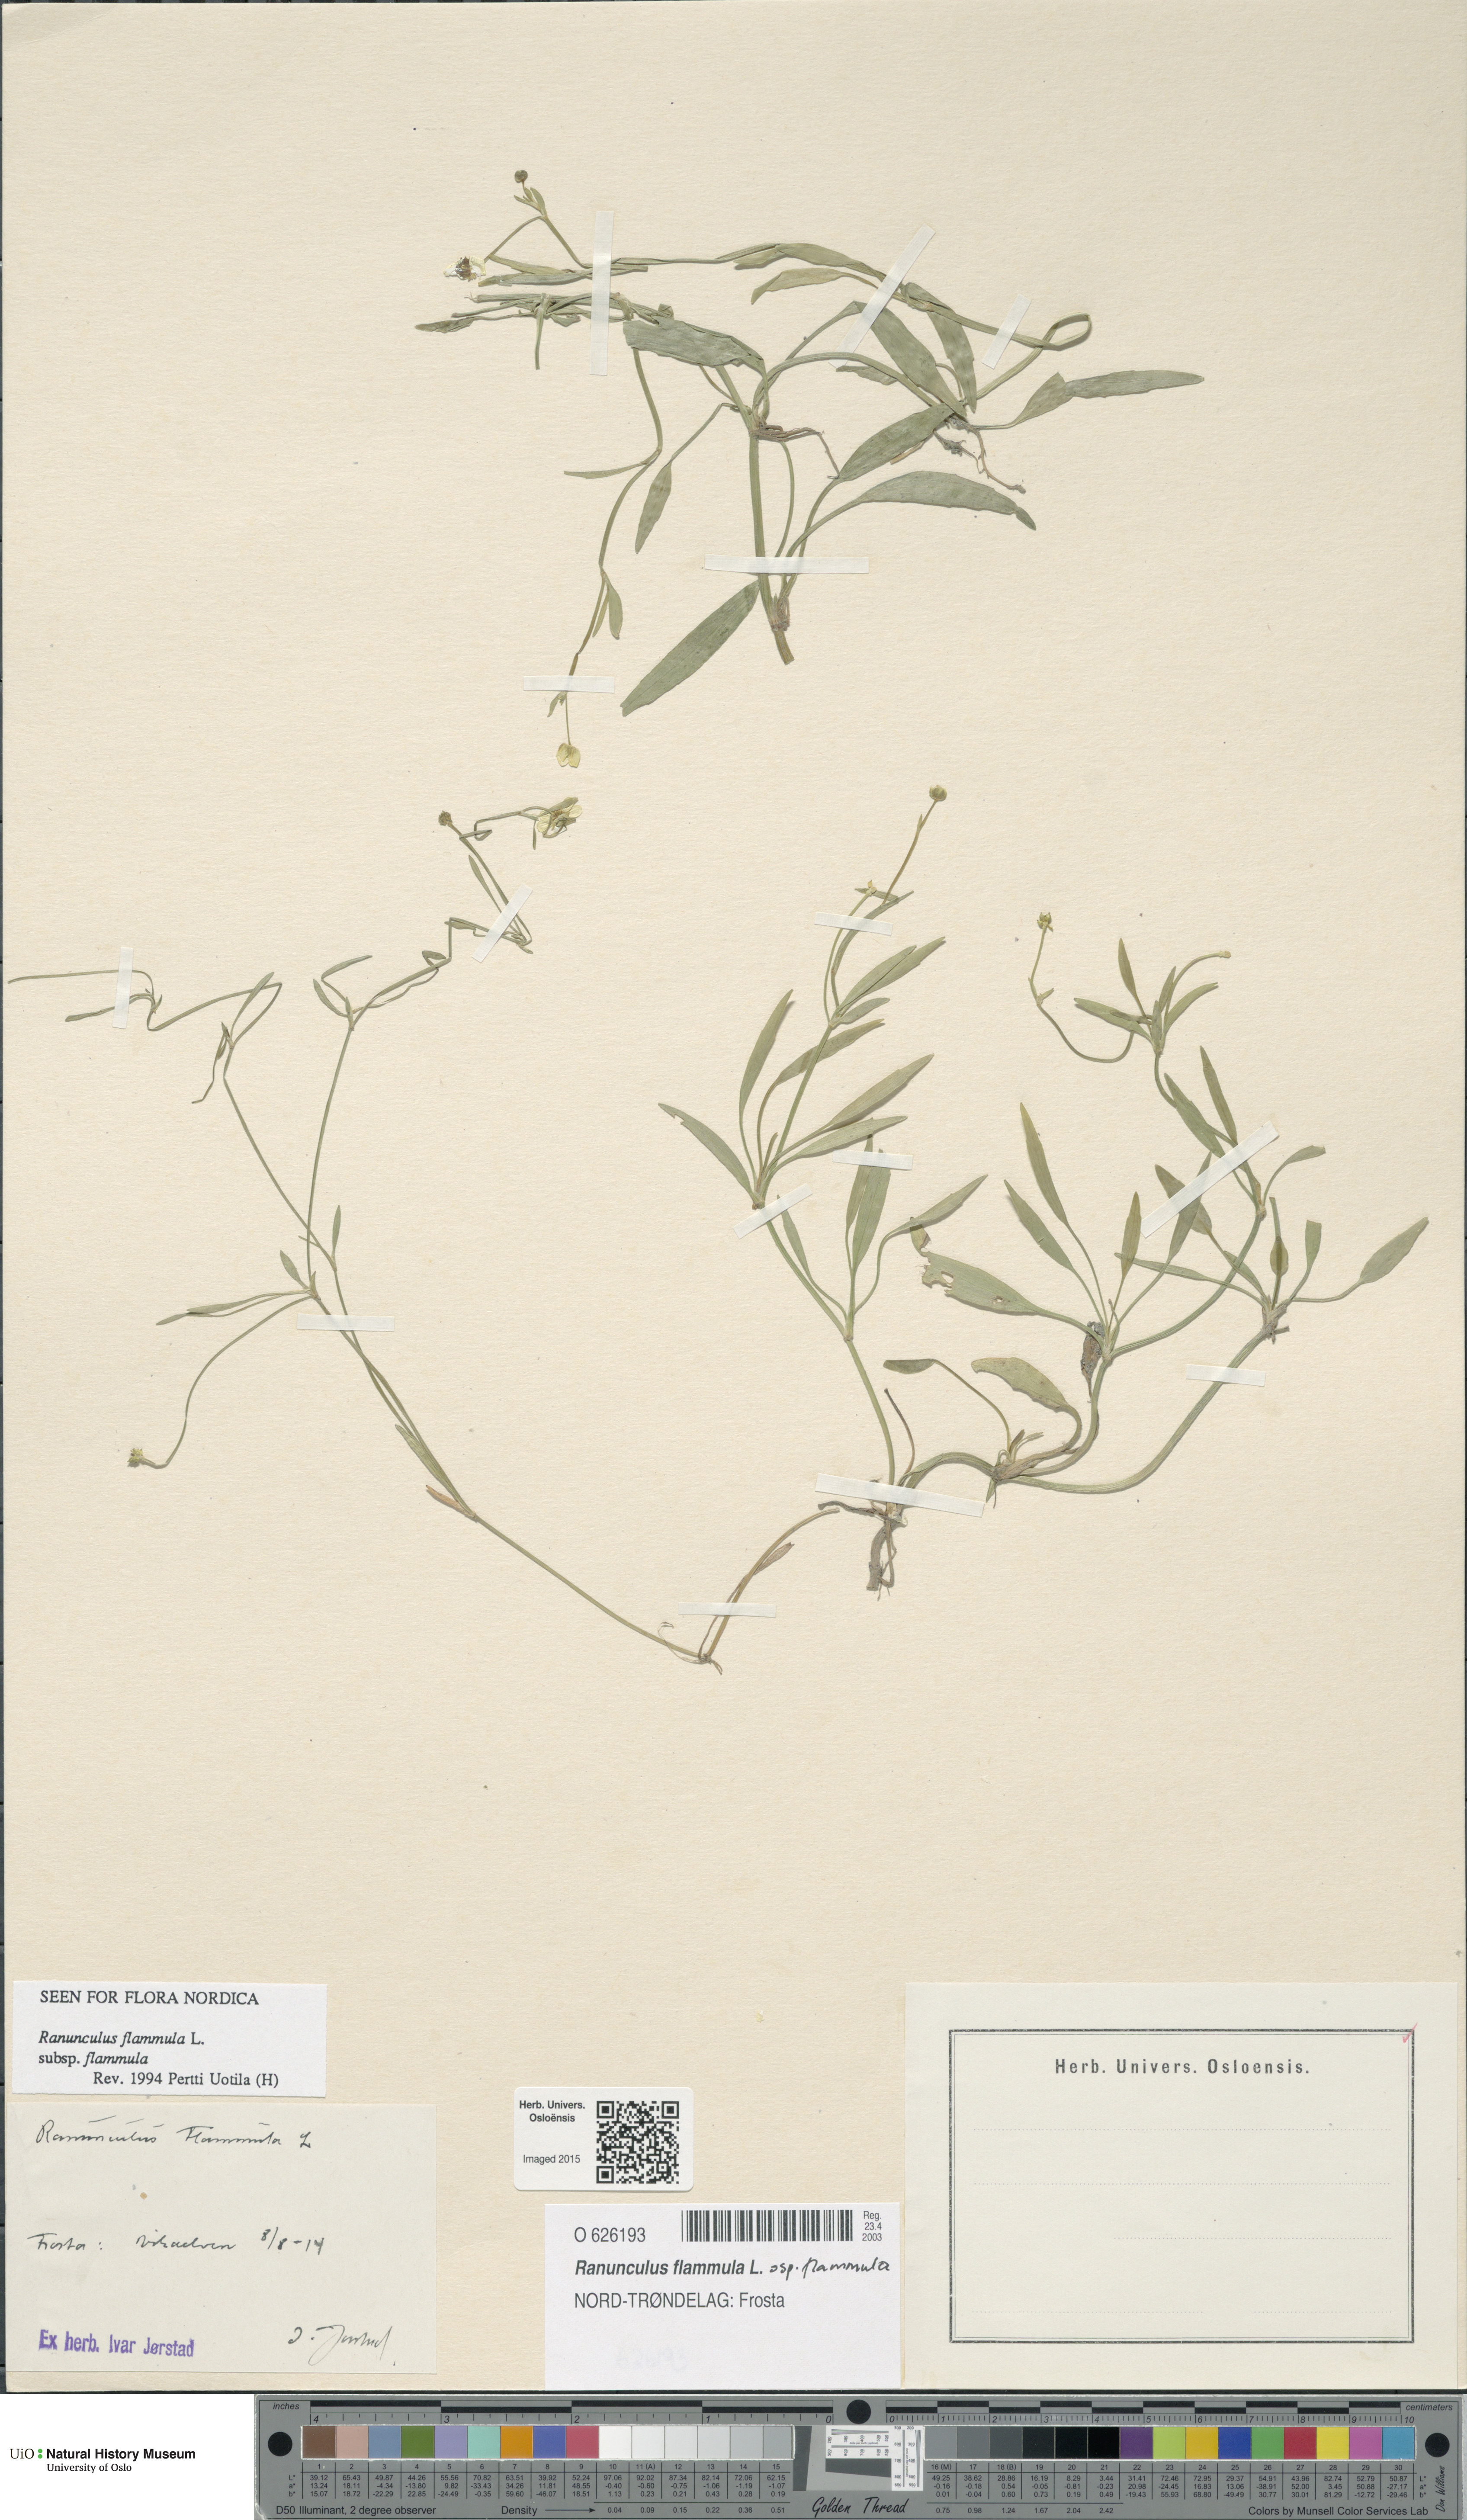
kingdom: Plantae
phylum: Tracheophyta
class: Magnoliopsida
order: Ranunculales
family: Ranunculaceae
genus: Ranunculus
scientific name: Ranunculus flammula
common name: Lesser spearwort
